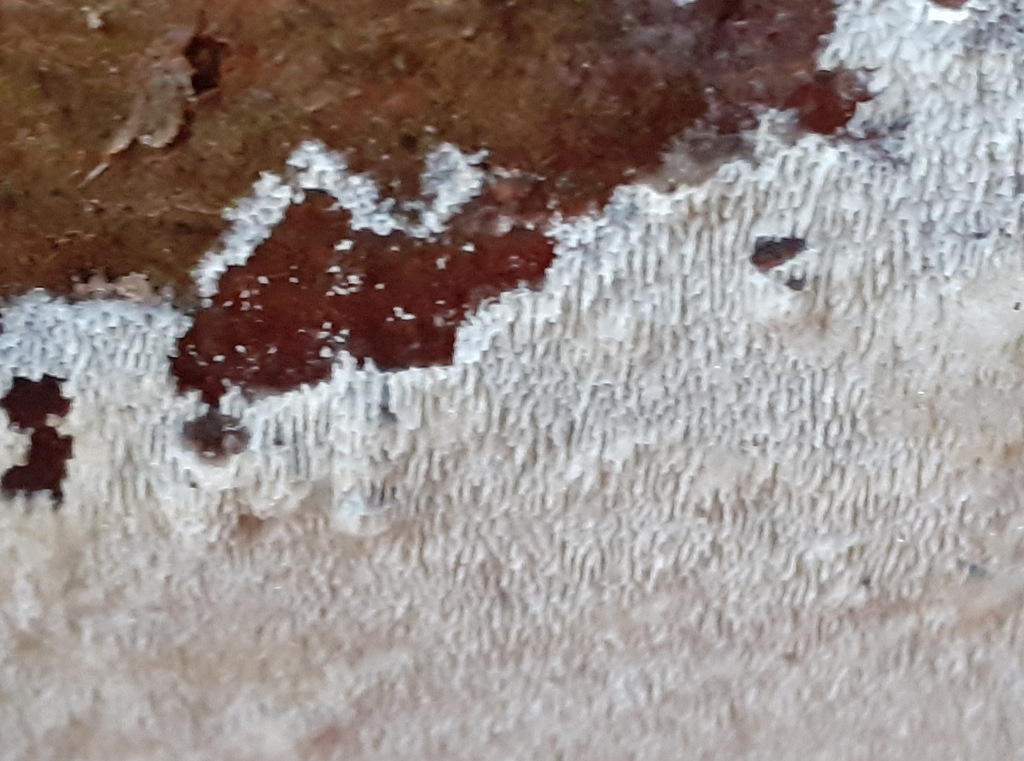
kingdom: Fungi
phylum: Basidiomycota
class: Agaricomycetes
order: Polyporales
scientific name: Polyporales
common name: poresvampordenen
